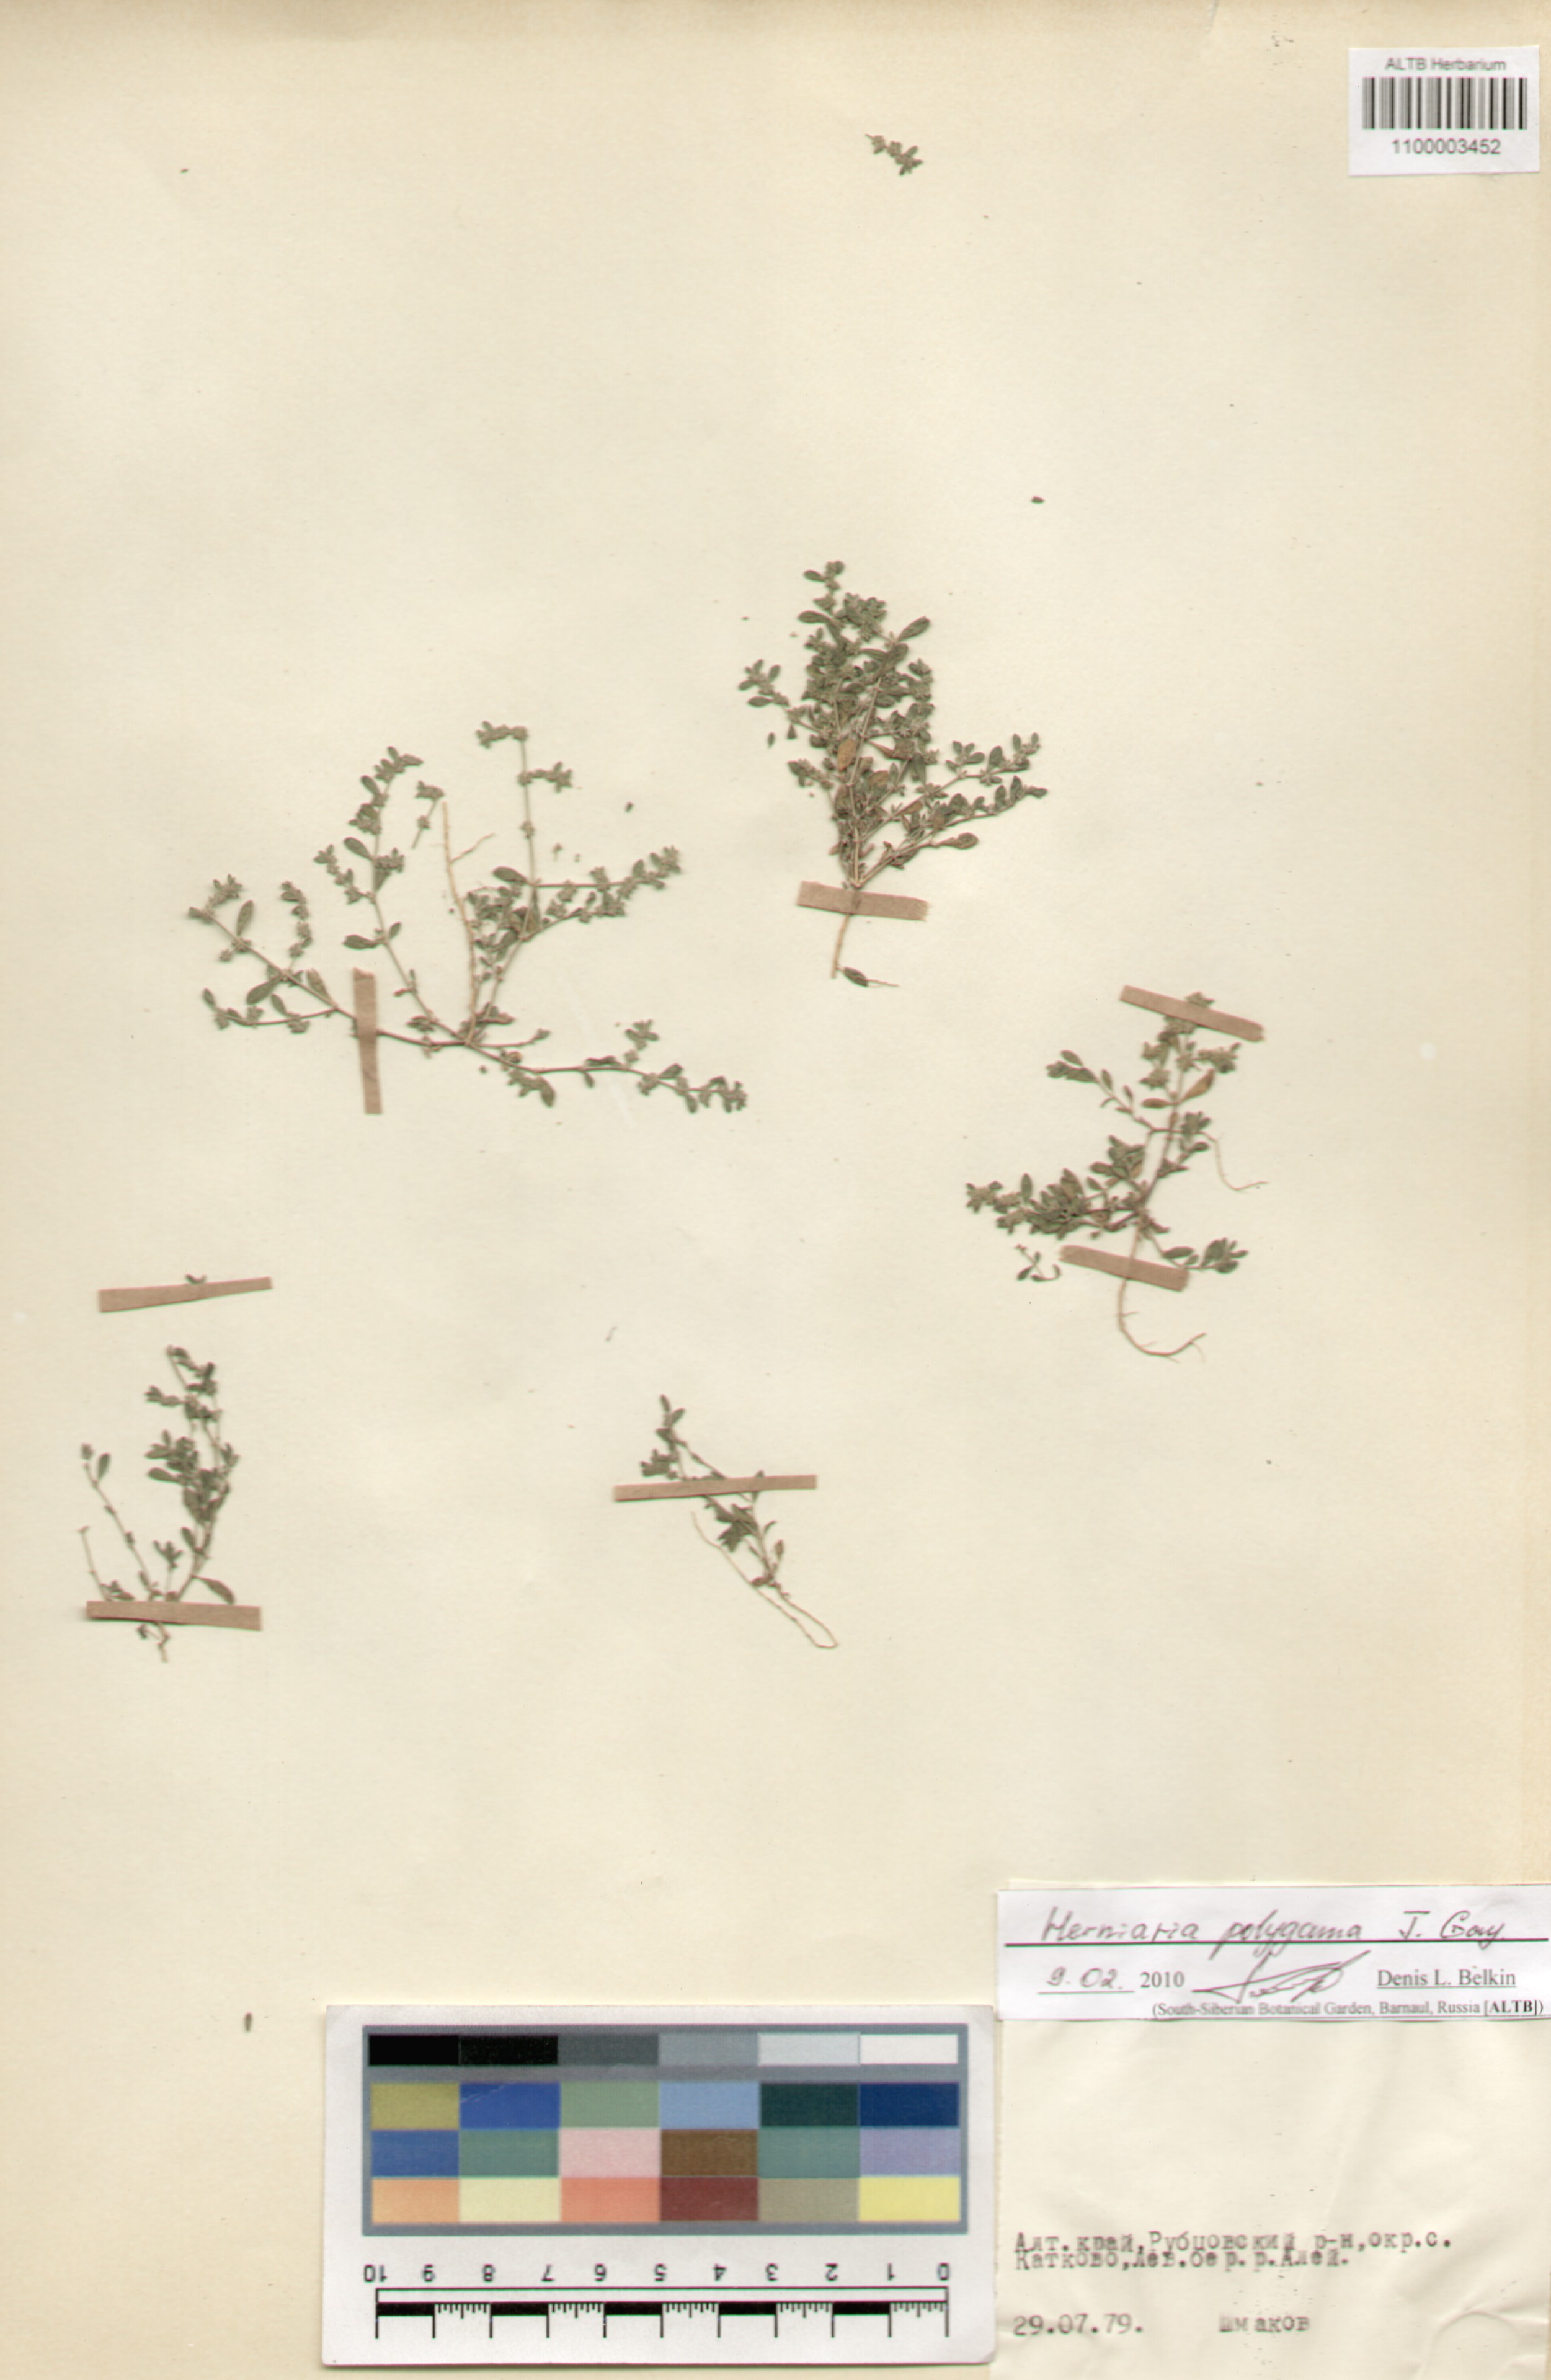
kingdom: Plantae
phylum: Tracheophyta
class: Magnoliopsida
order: Caryophyllales
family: Caryophyllaceae
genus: Herniaria
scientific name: Herniaria polygama
